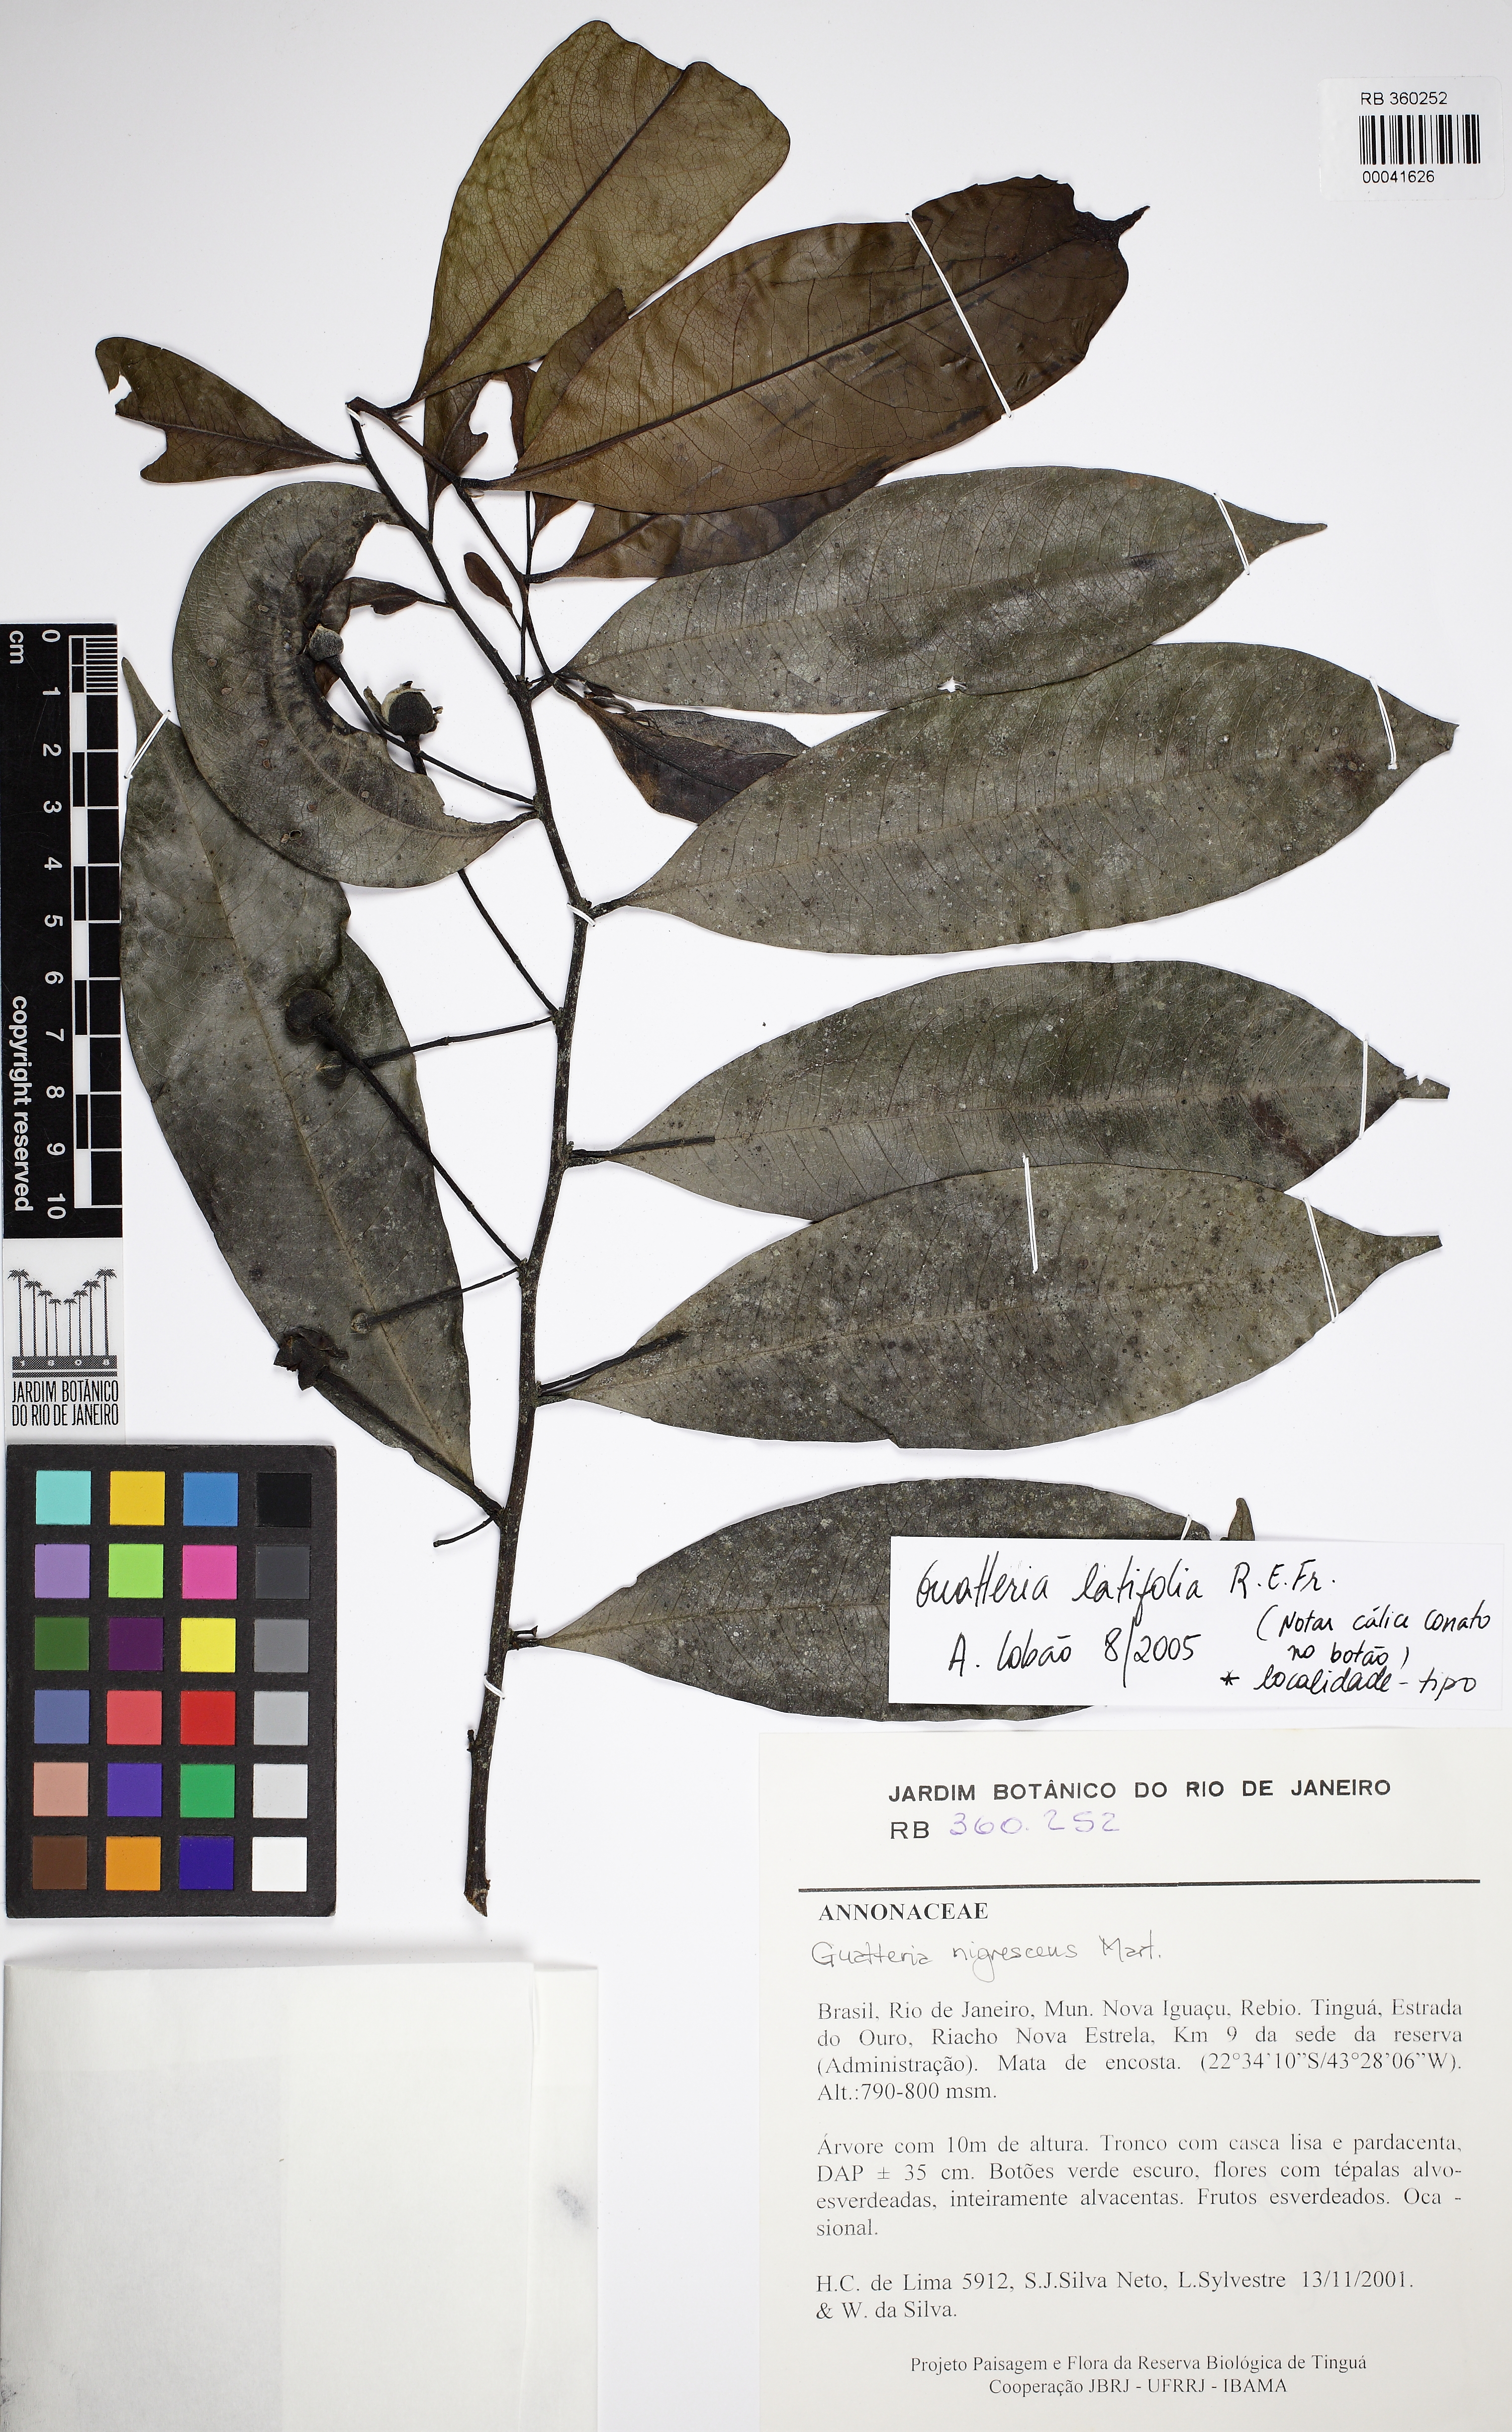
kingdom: Plantae
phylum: Tracheophyta
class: Magnoliopsida
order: Magnoliales
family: Annonaceae
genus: Guatteria
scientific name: Guatteria latifolia
